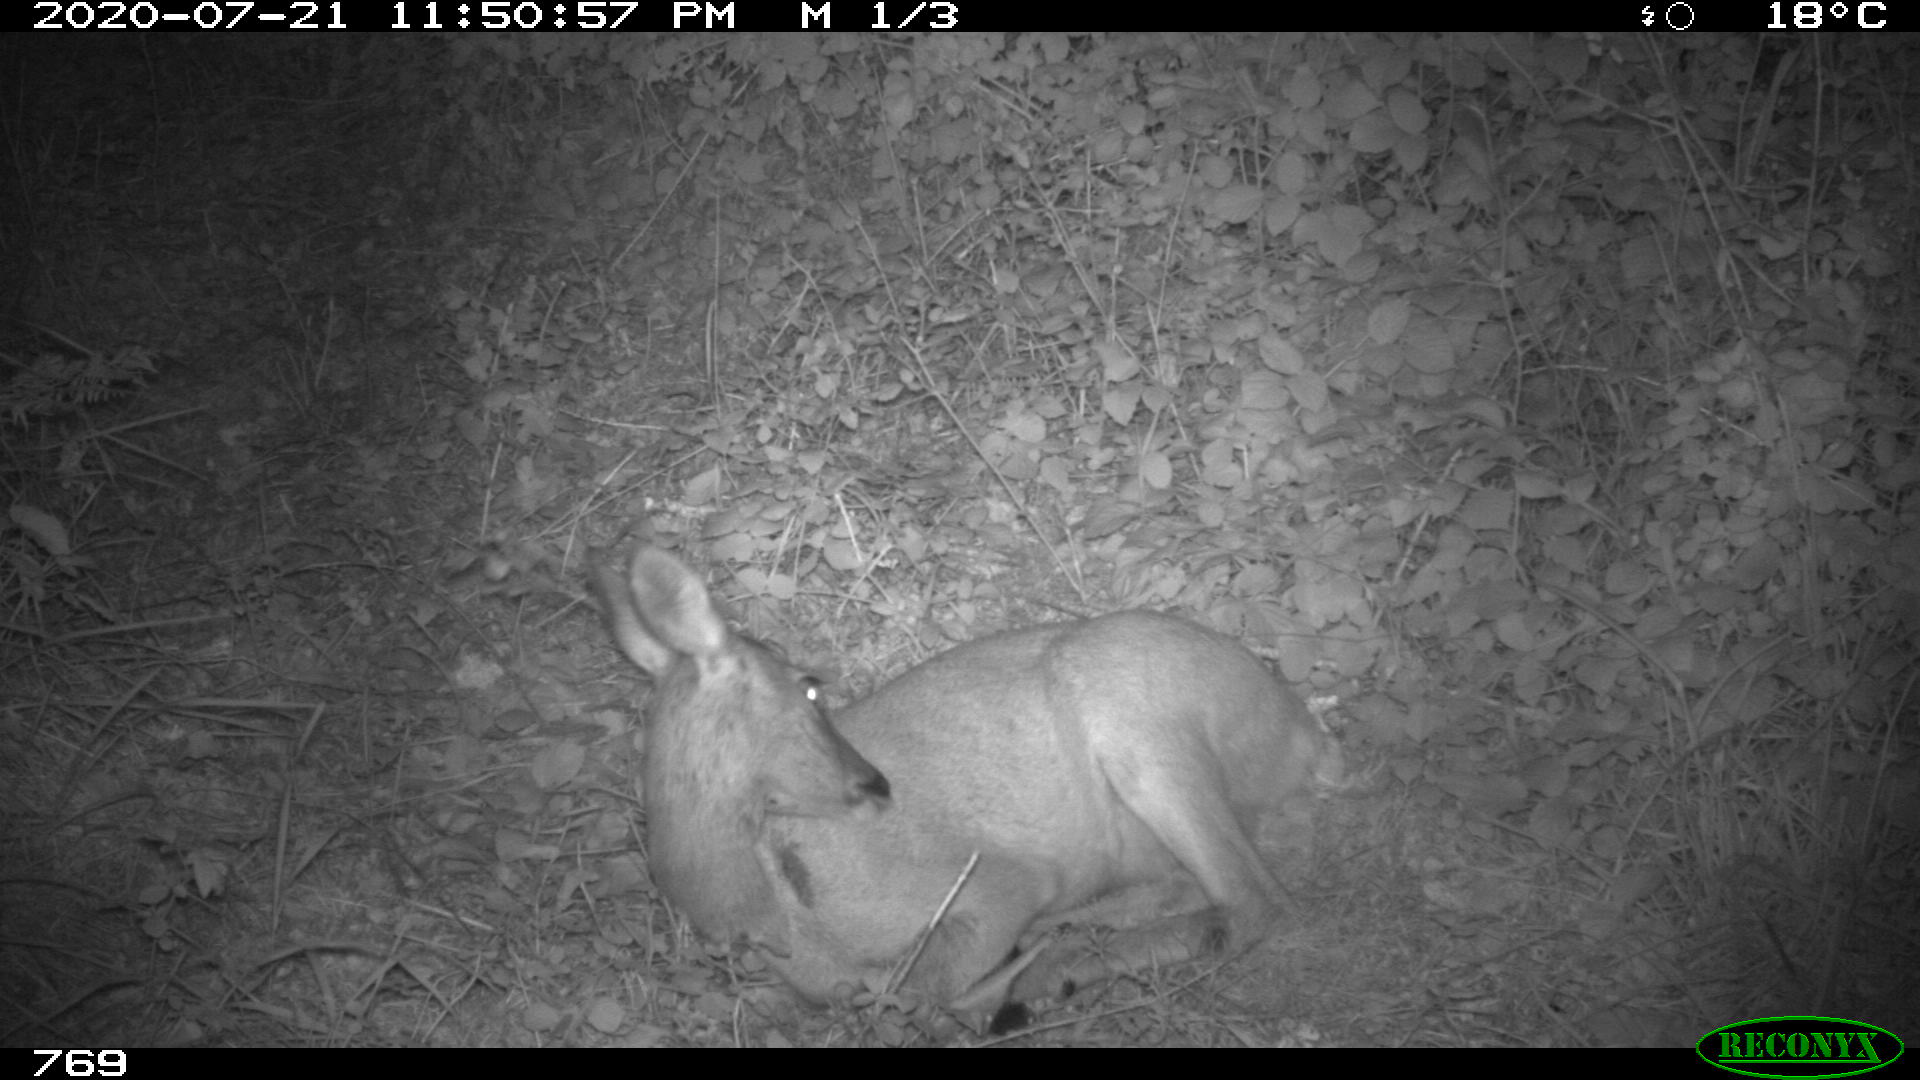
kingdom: Animalia
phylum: Chordata
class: Mammalia
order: Artiodactyla
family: Cervidae
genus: Capreolus
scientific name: Capreolus capreolus
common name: Western roe deer
